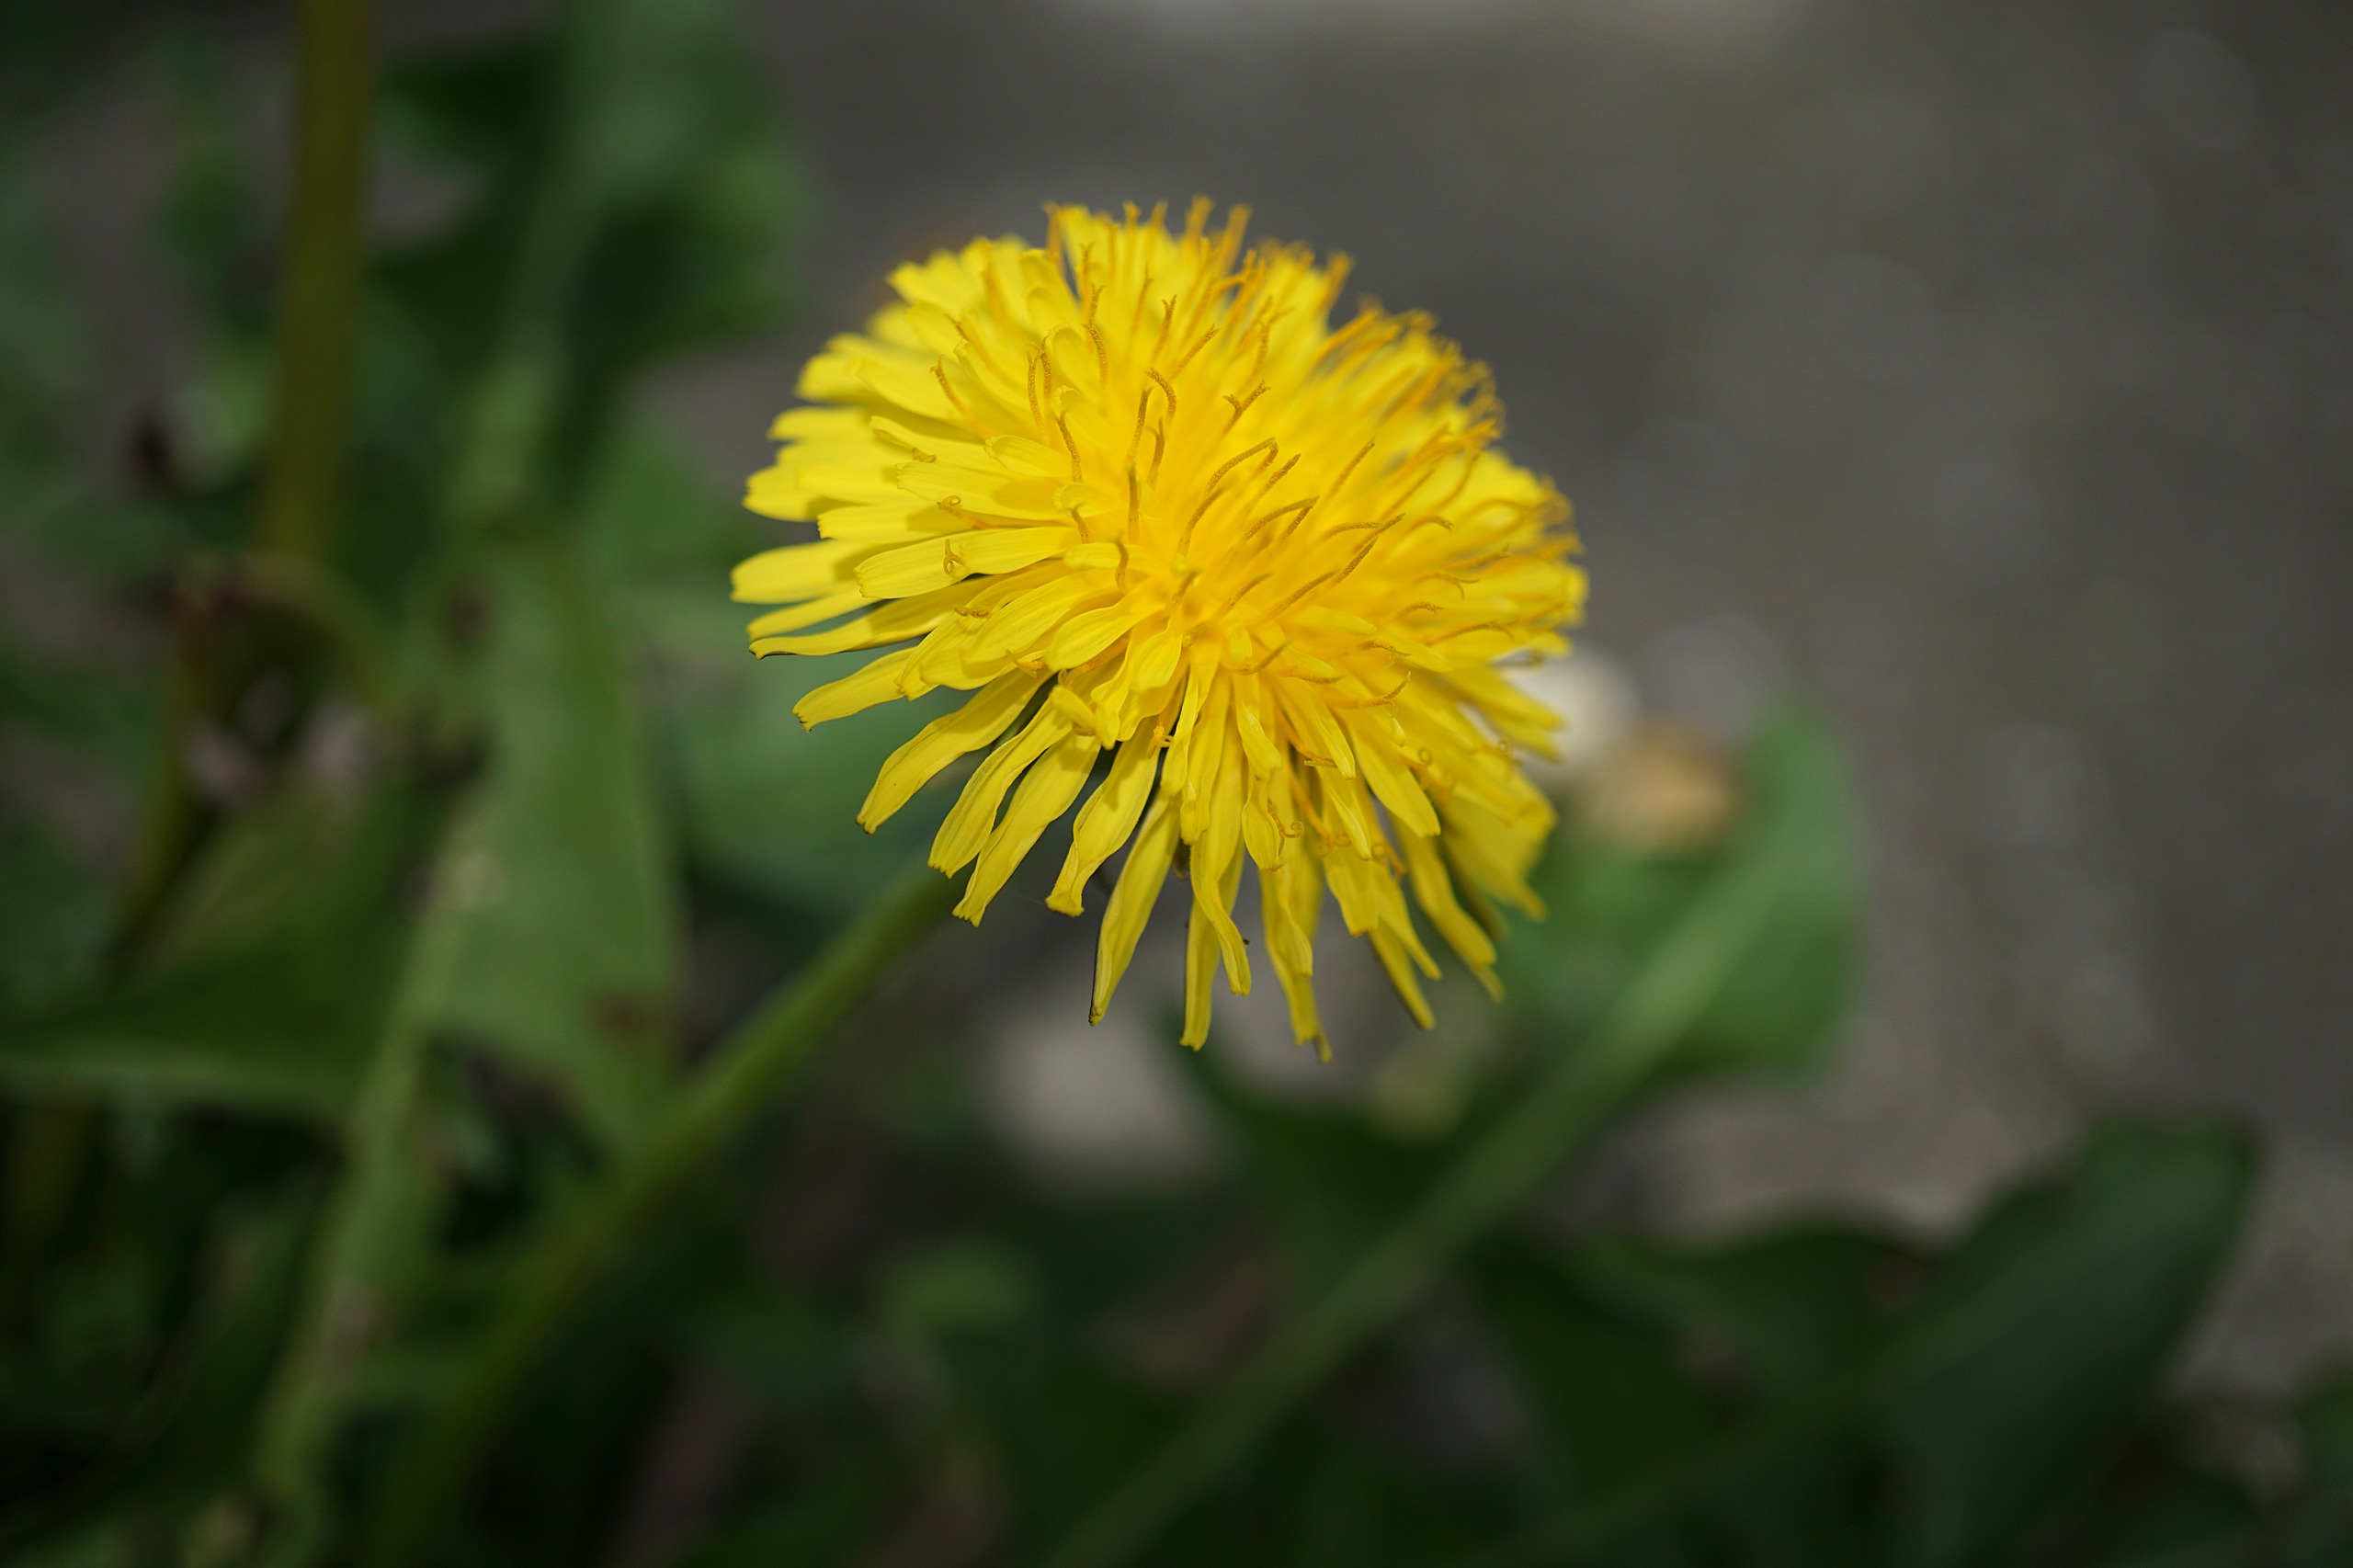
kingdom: Plantae
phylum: Tracheophyta
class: Magnoliopsida
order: Asterales
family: Asteraceae
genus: Taraxacum
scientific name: Taraxacum
